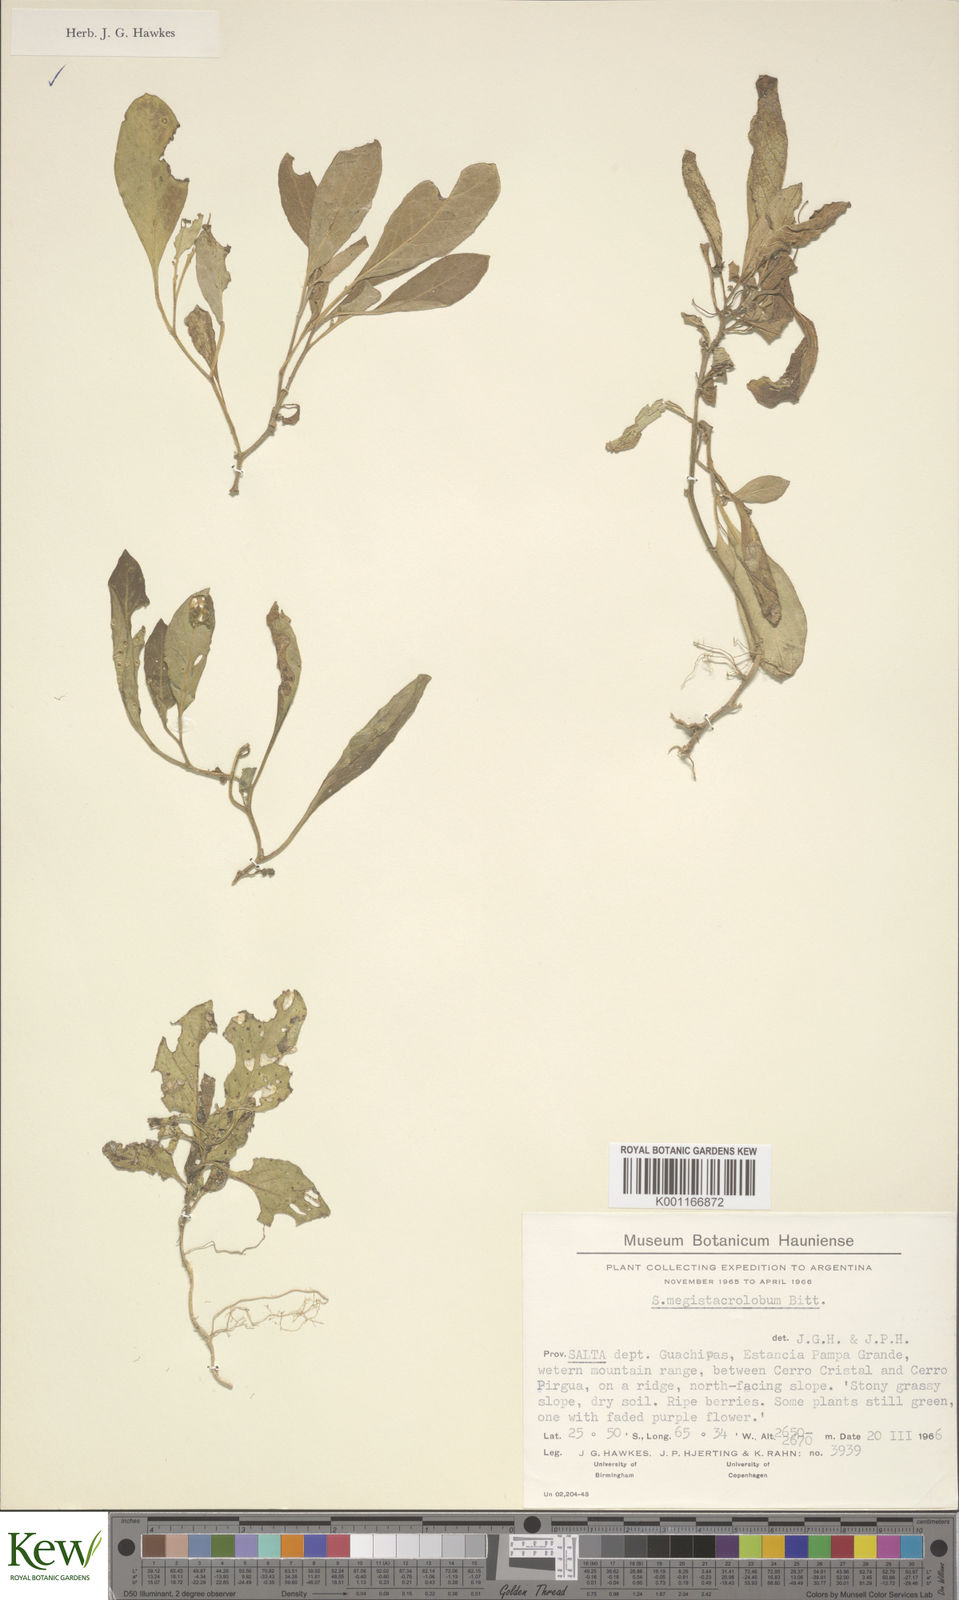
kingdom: Plantae
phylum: Tracheophyta
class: Magnoliopsida
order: Solanales
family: Solanaceae
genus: Solanum
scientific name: Solanum boliviense
